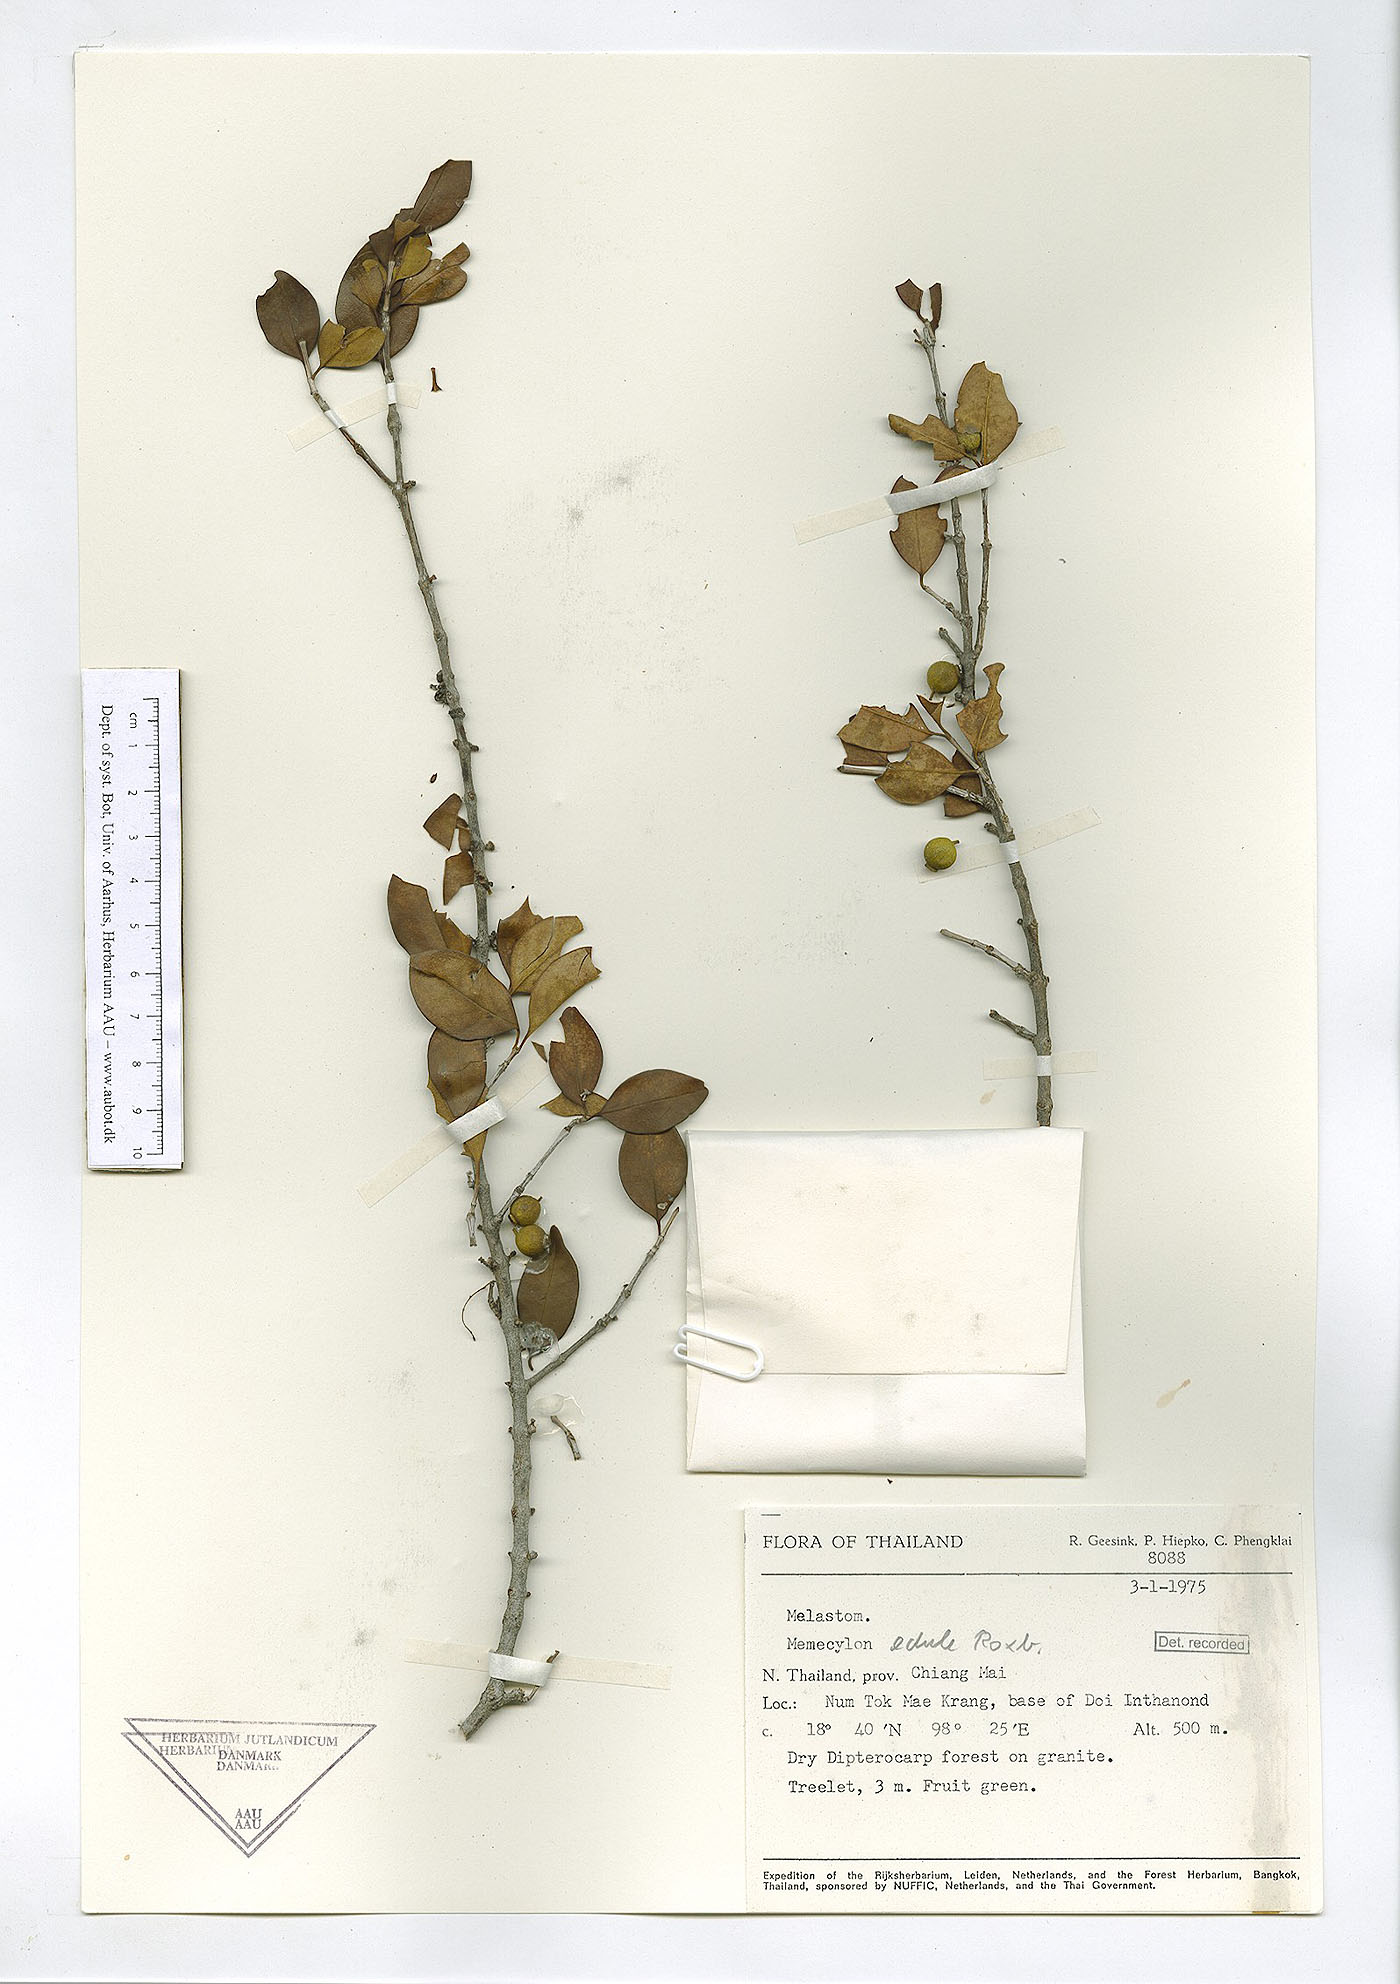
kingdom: Plantae
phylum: Tracheophyta
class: Magnoliopsida
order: Myrtales
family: Melastomataceae
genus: Memecylon
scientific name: Memecylon scutellatum
